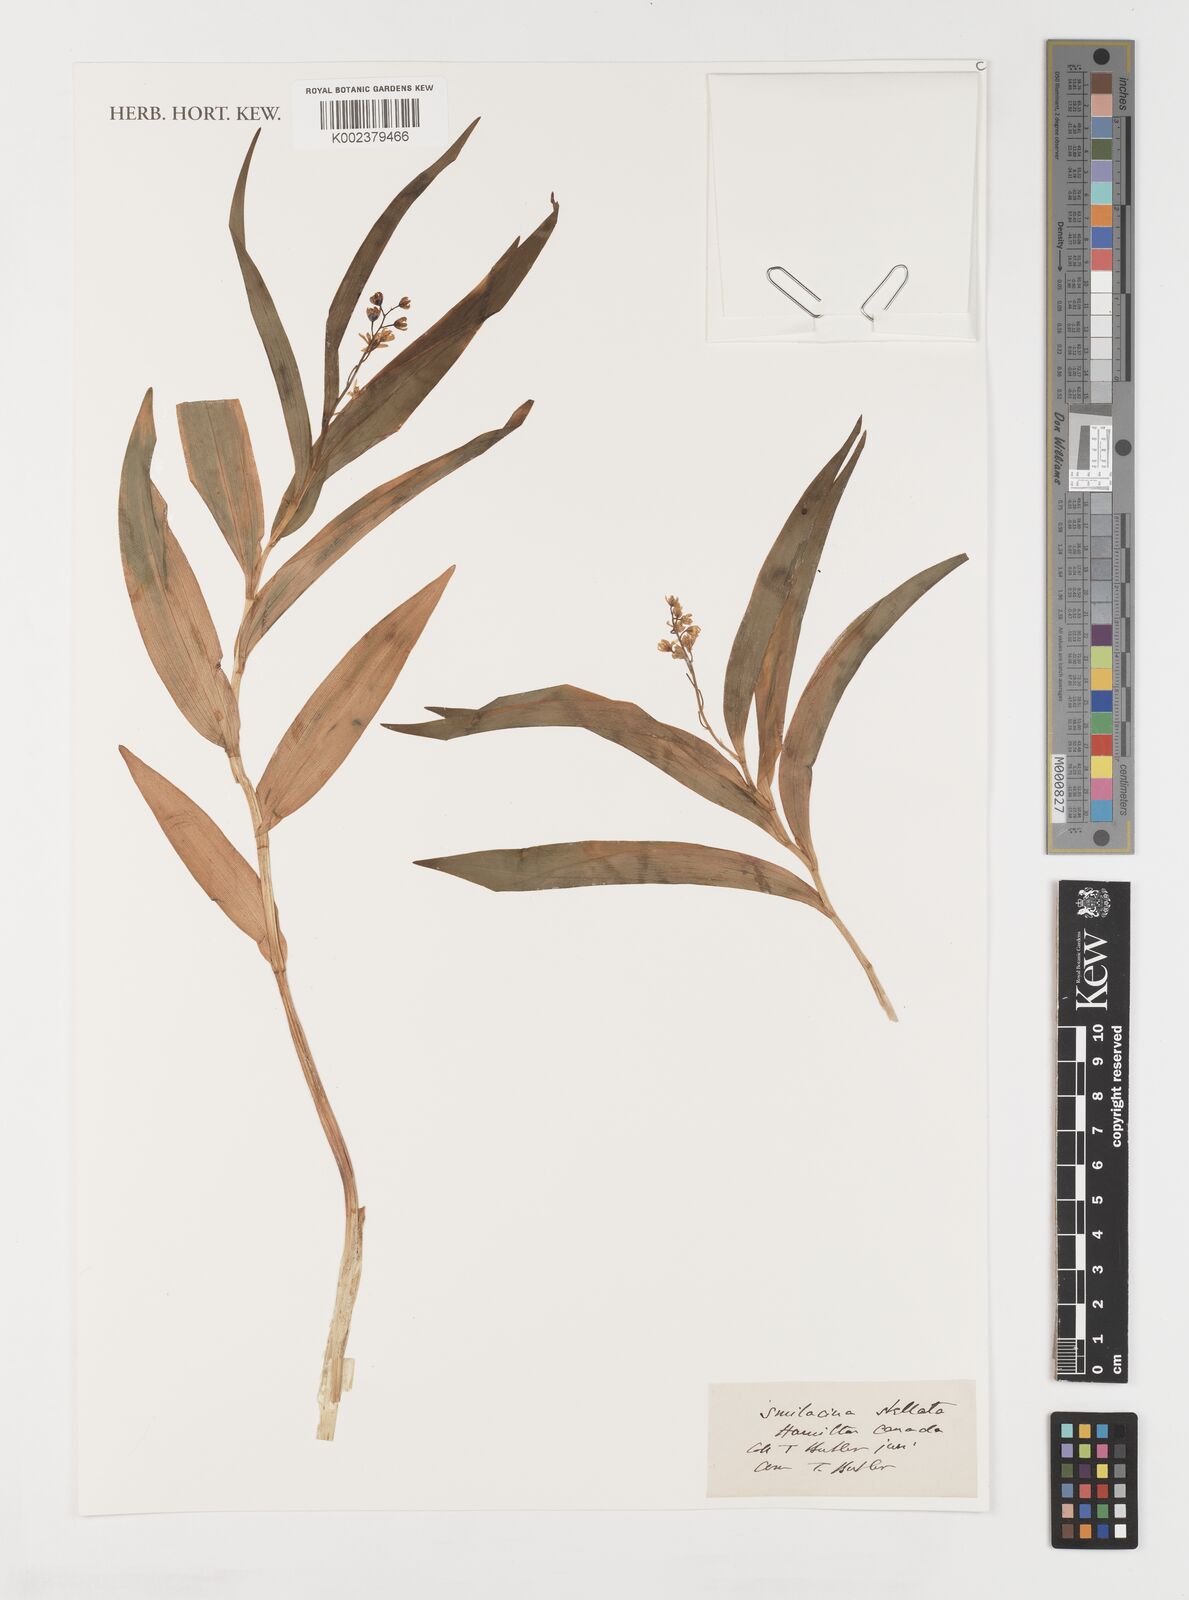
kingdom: Plantae
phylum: Tracheophyta
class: Liliopsida
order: Liliales
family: Smilacaceae
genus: Smilax
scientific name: Smilax
